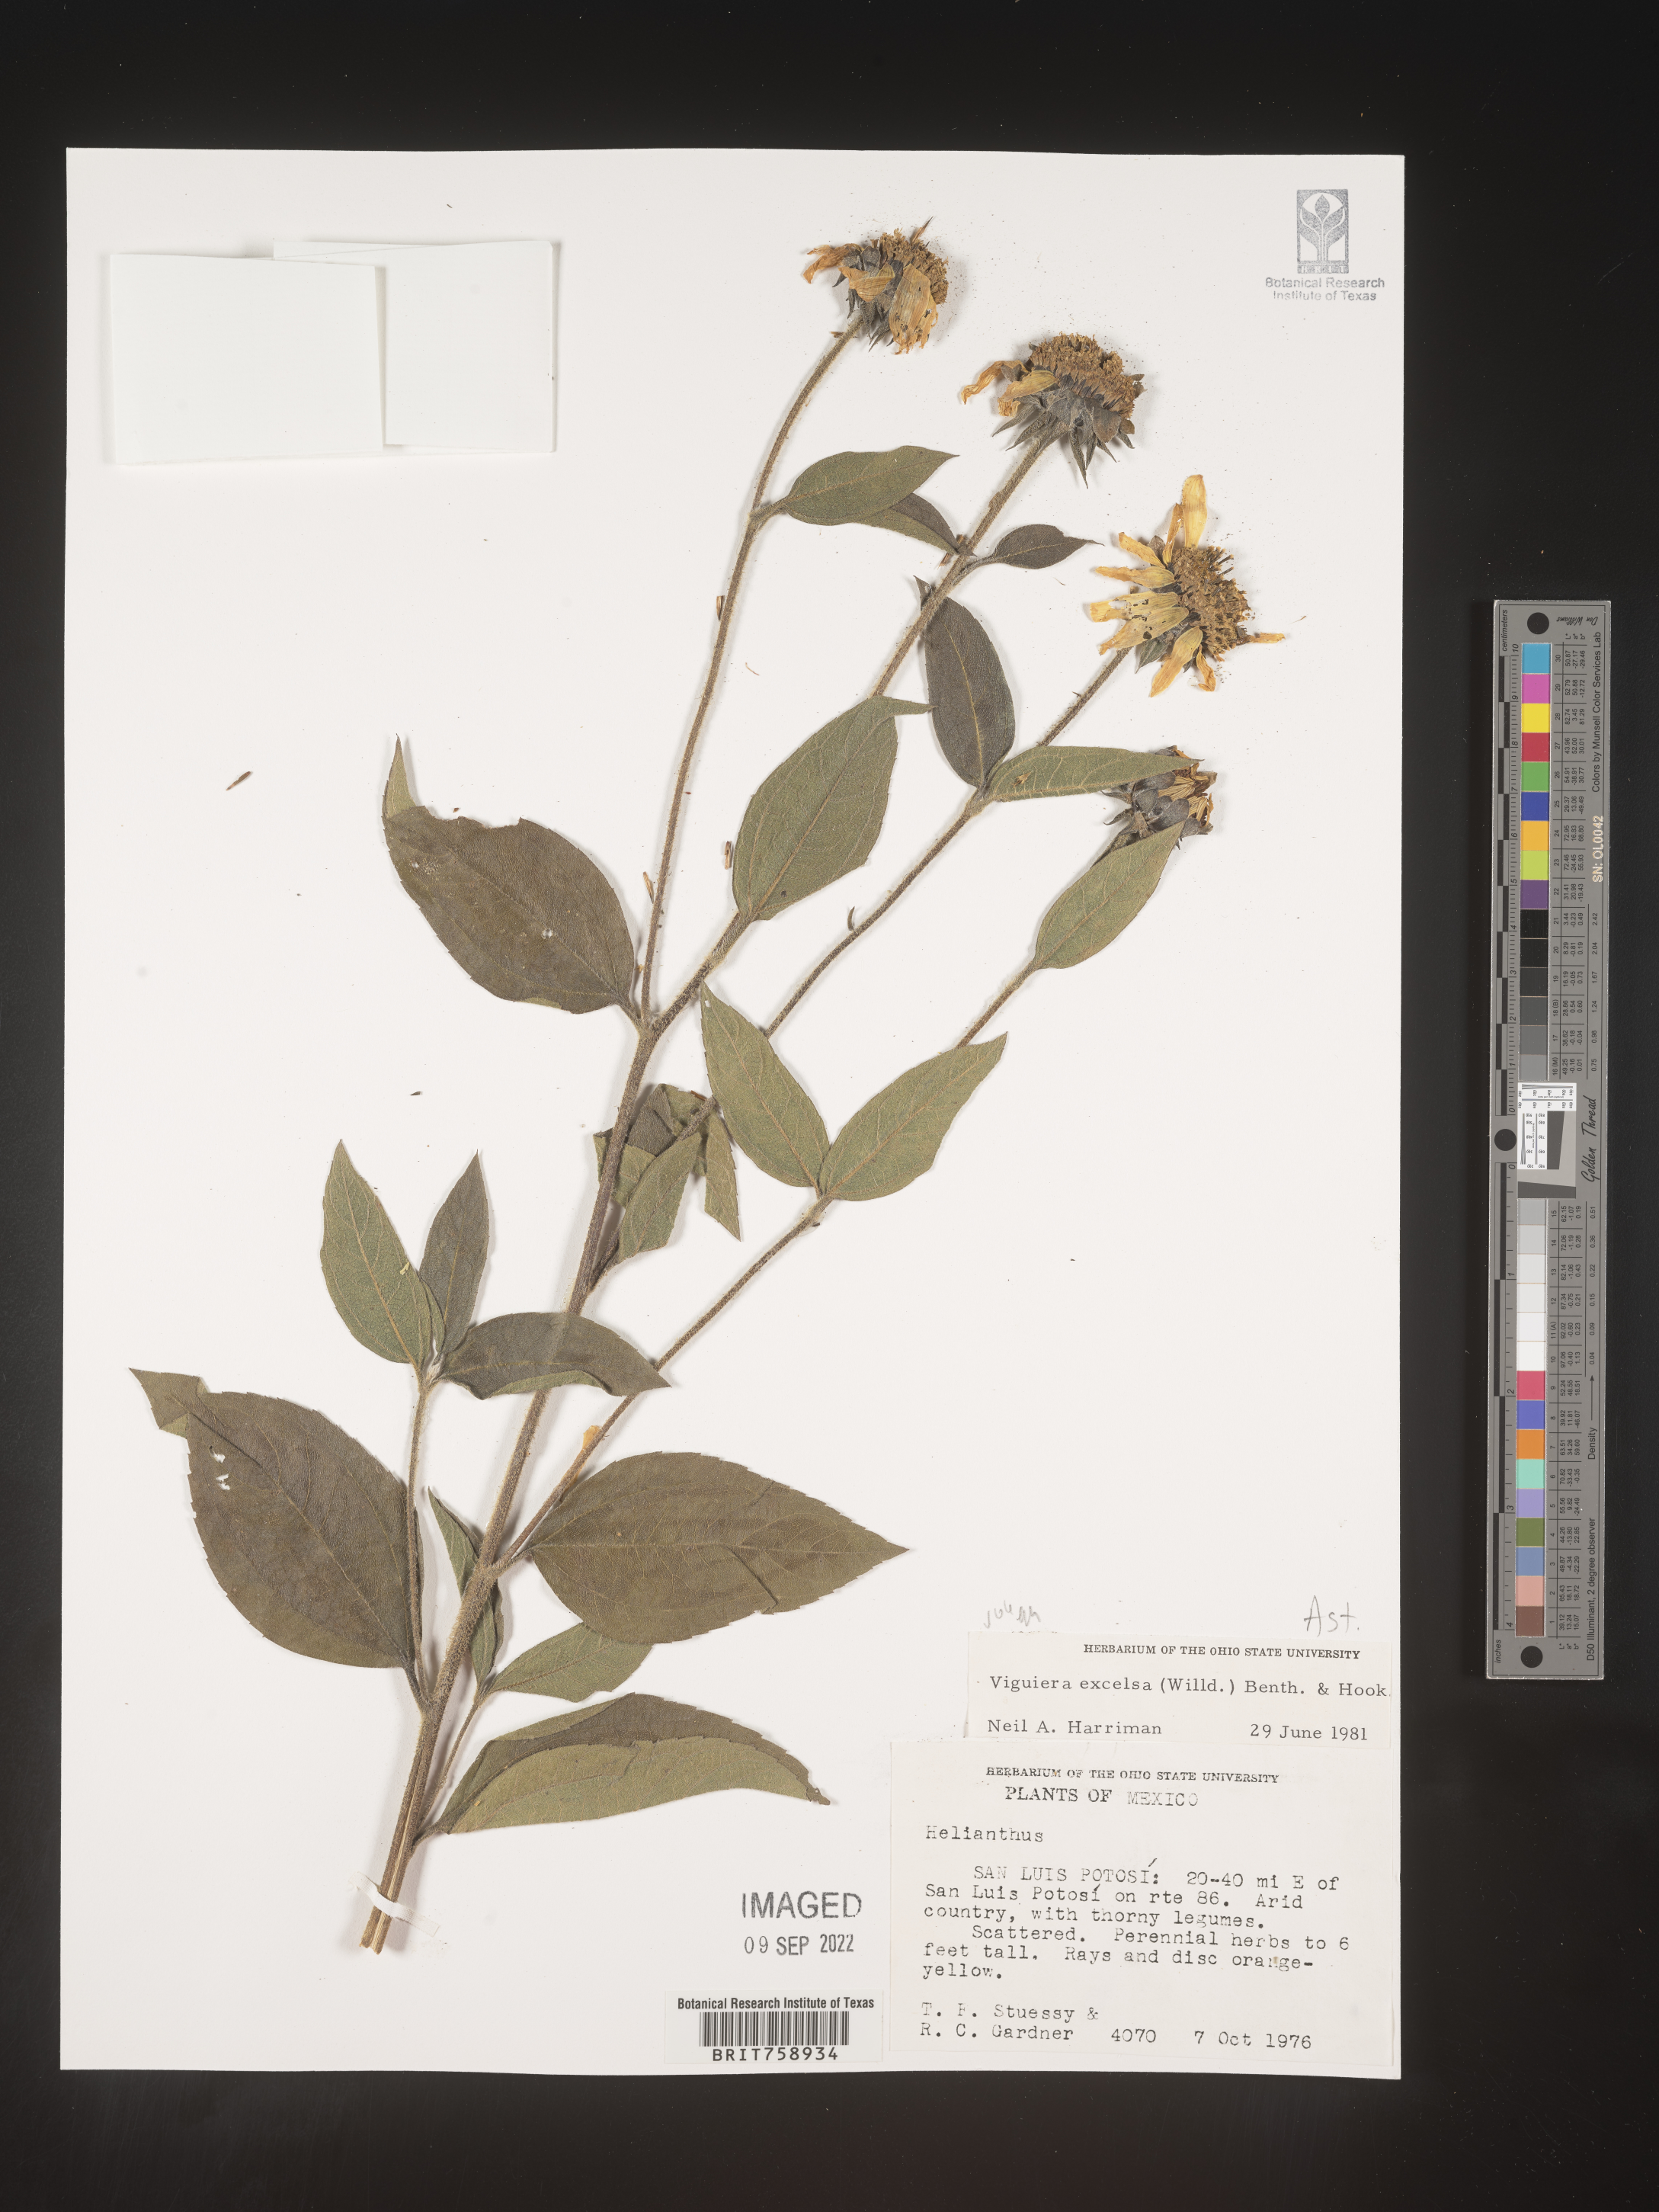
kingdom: Plantae
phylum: Tracheophyta
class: Magnoliopsida
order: Asterales
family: Asteraceae
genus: Viguiera
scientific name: Viguiera
